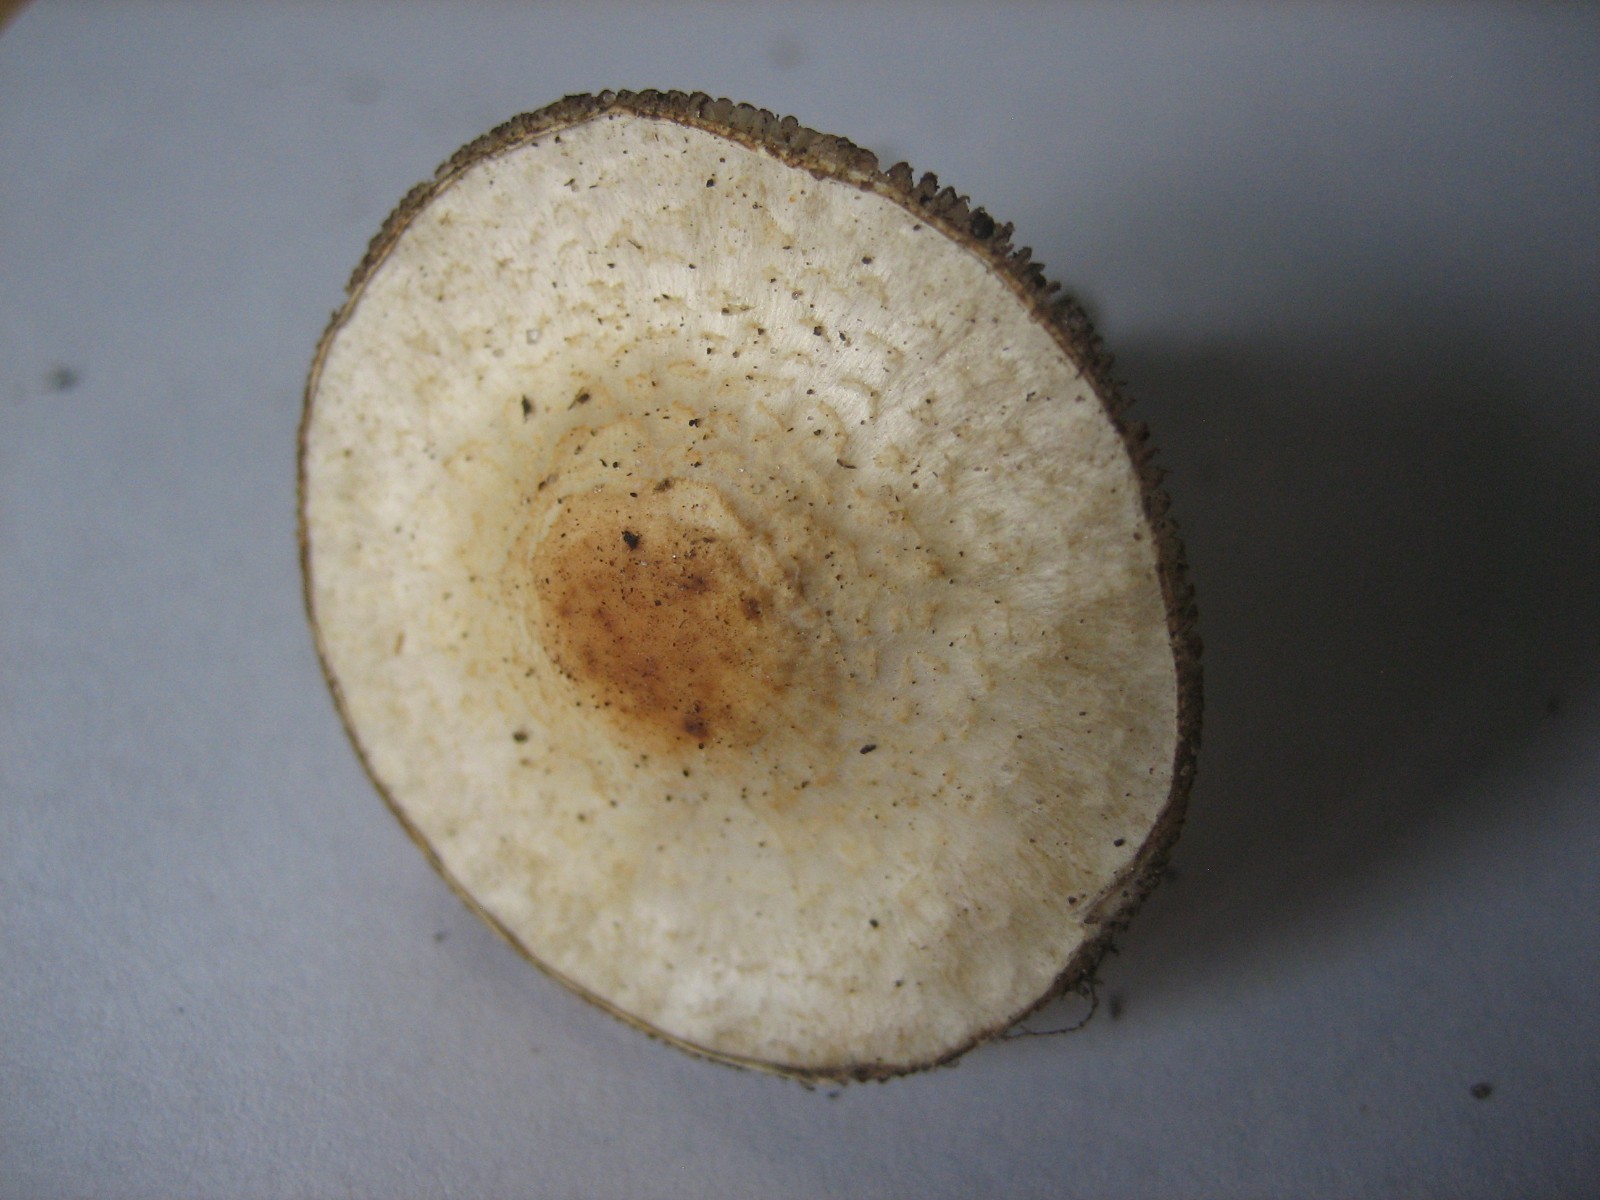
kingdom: Fungi
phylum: Basidiomycota
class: Agaricomycetes
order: Agaricales
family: Agaricaceae
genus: Lepiota
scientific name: Lepiota
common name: parasolhat
